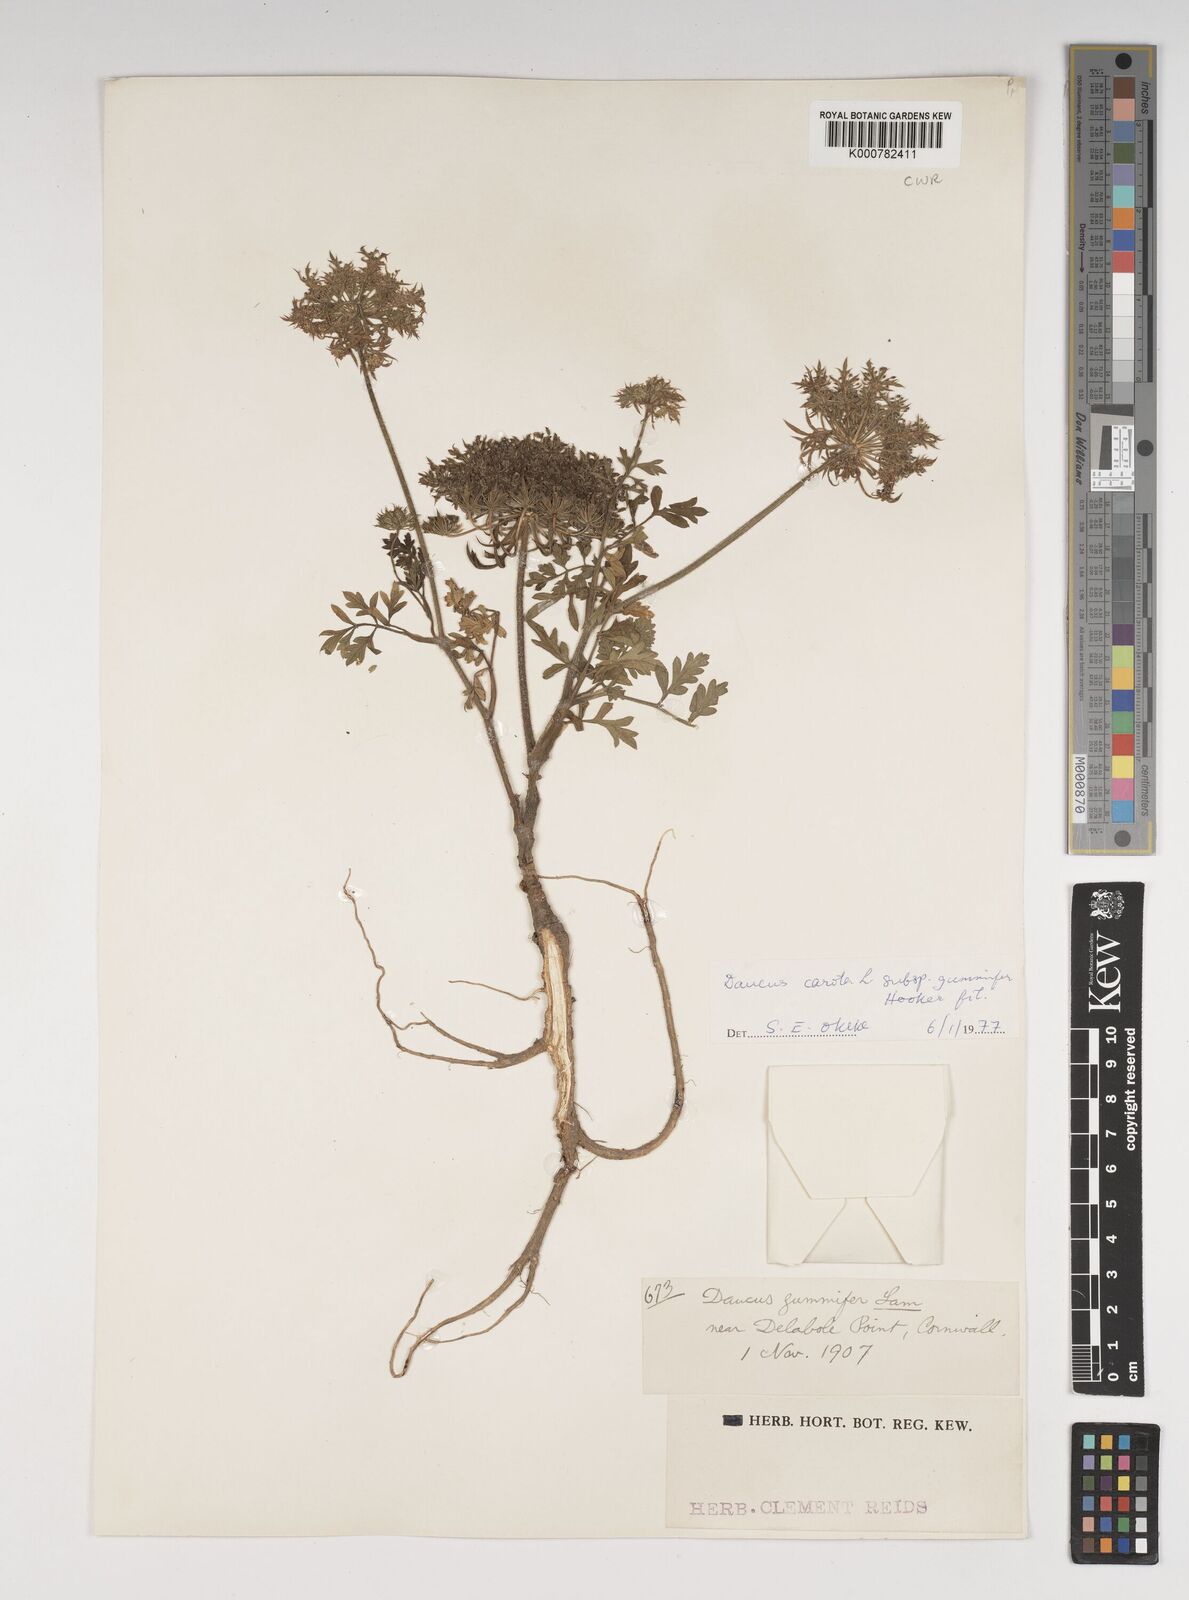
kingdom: Plantae
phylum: Tracheophyta
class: Magnoliopsida
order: Apiales
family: Apiaceae
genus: Daucus
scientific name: Daucus carota
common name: Wild carrot
